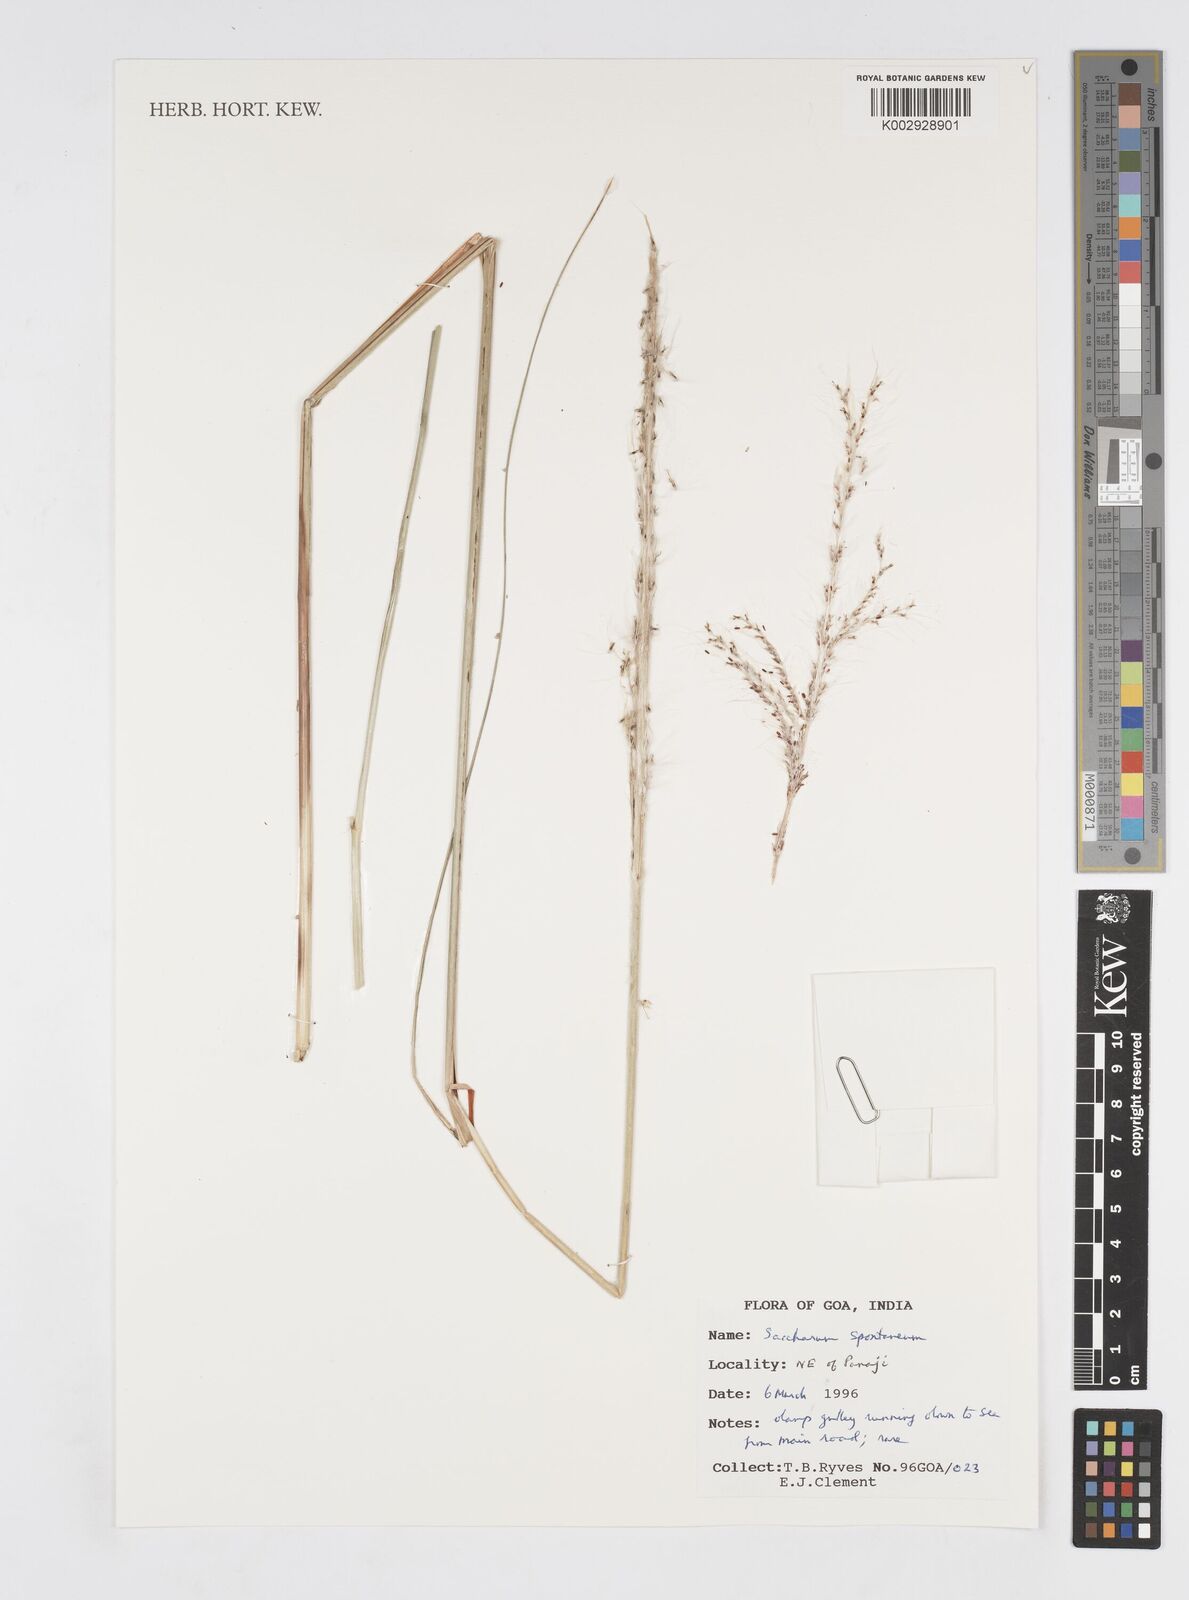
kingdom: Plantae
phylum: Tracheophyta
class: Liliopsida
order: Poales
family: Poaceae
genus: Saccharum
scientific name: Saccharum spontaneum
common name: Wild sugarcane
